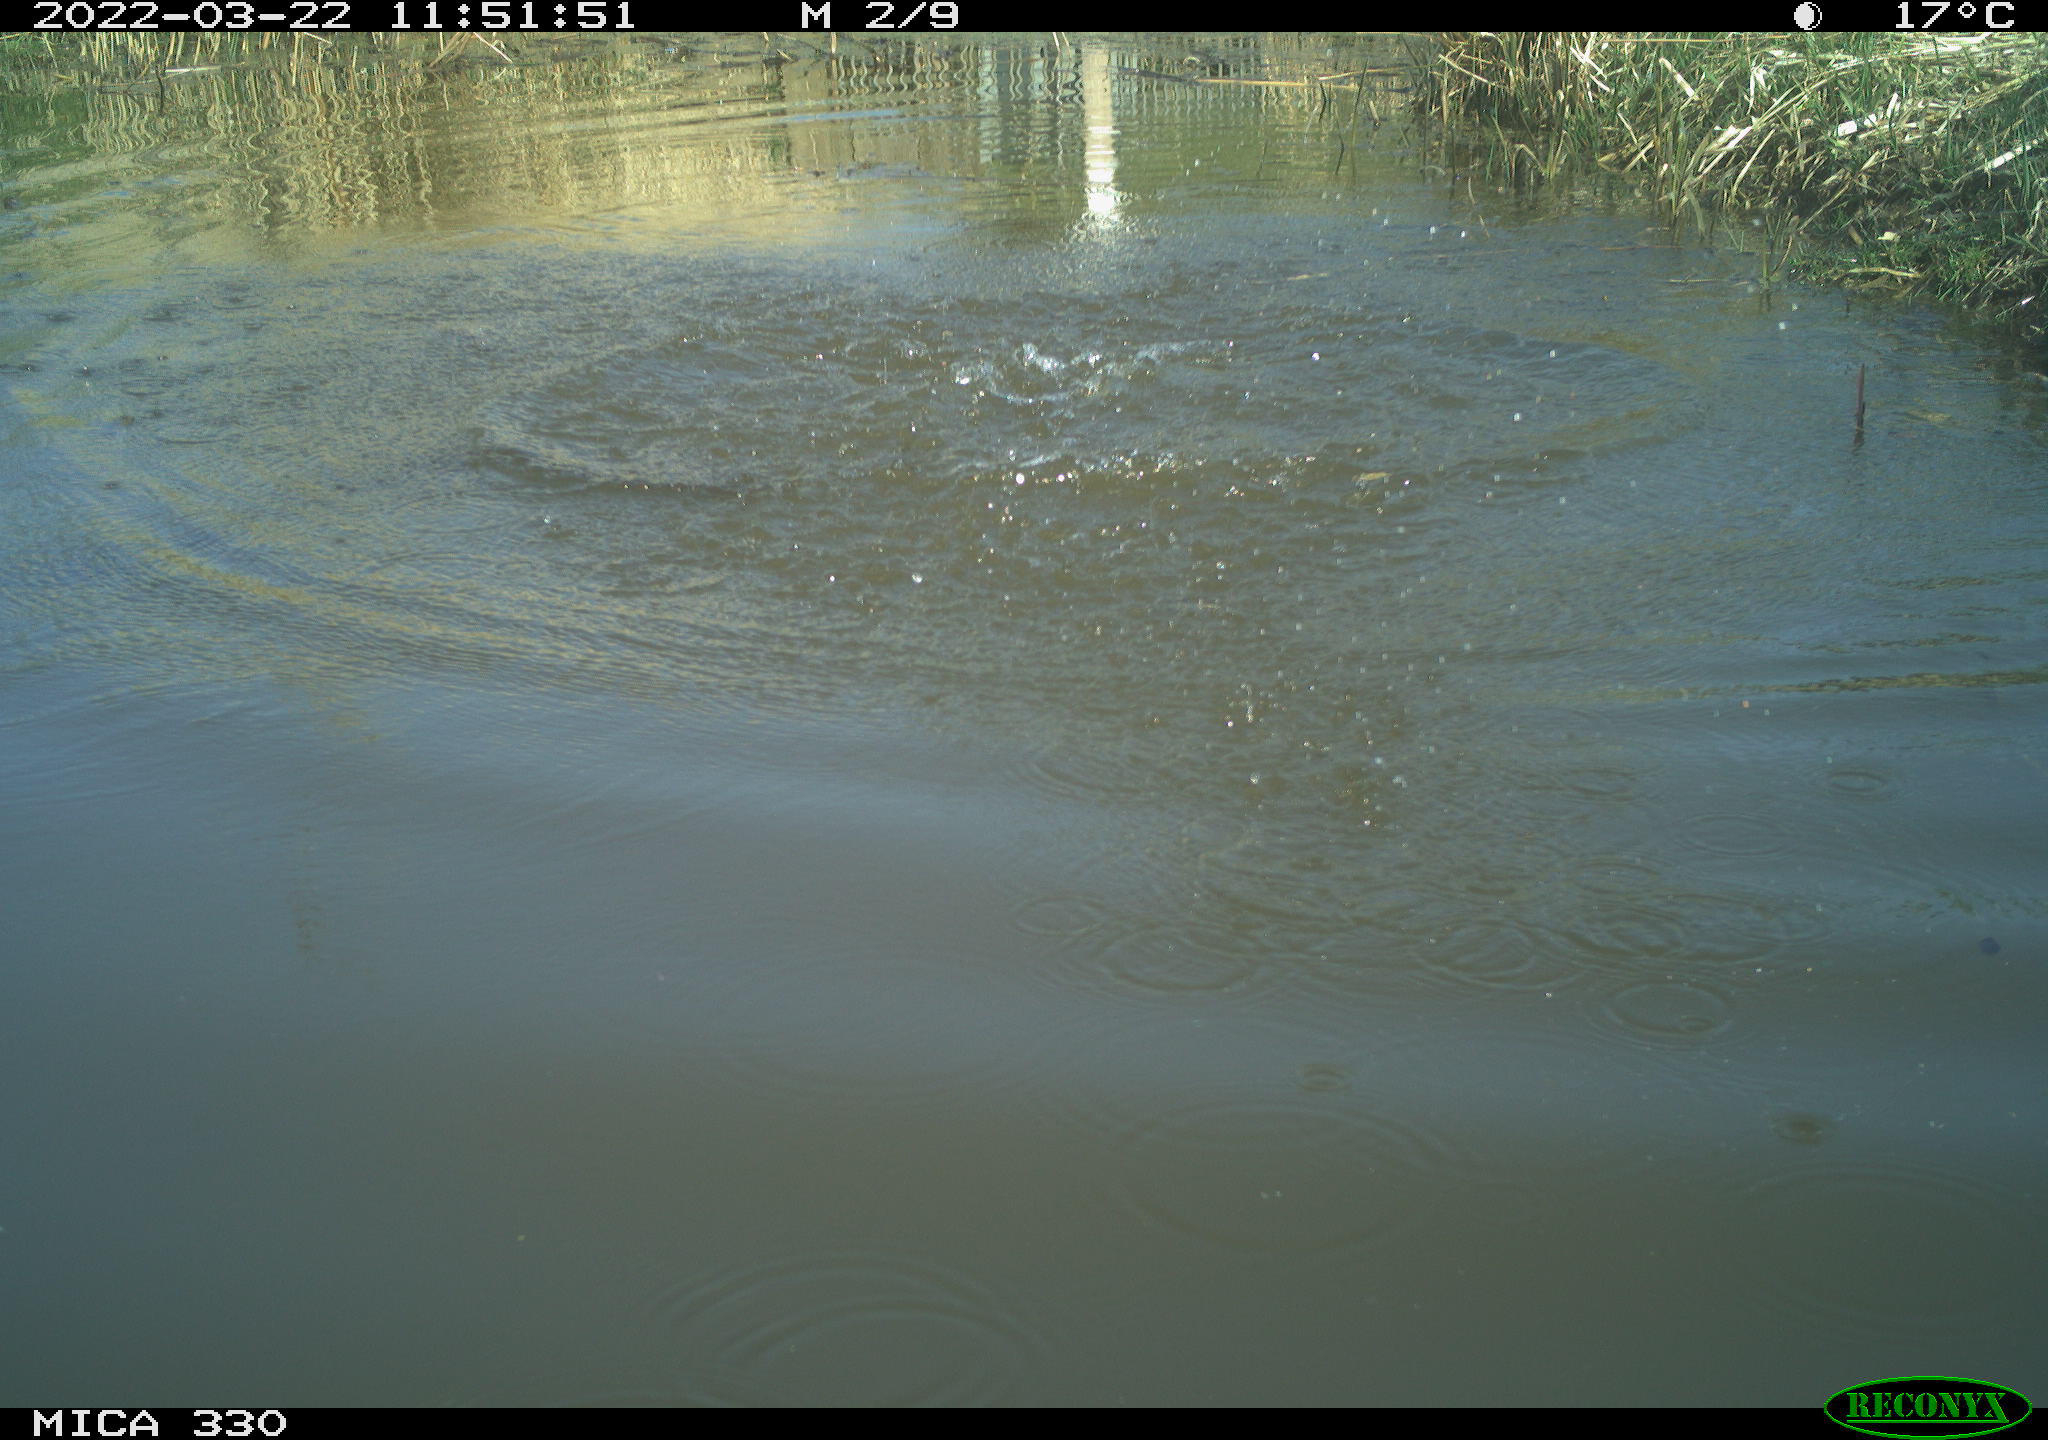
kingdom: Animalia
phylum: Chordata
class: Aves
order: Anseriformes
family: Anatidae
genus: Anas
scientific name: Anas platyrhynchos
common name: Mallard
